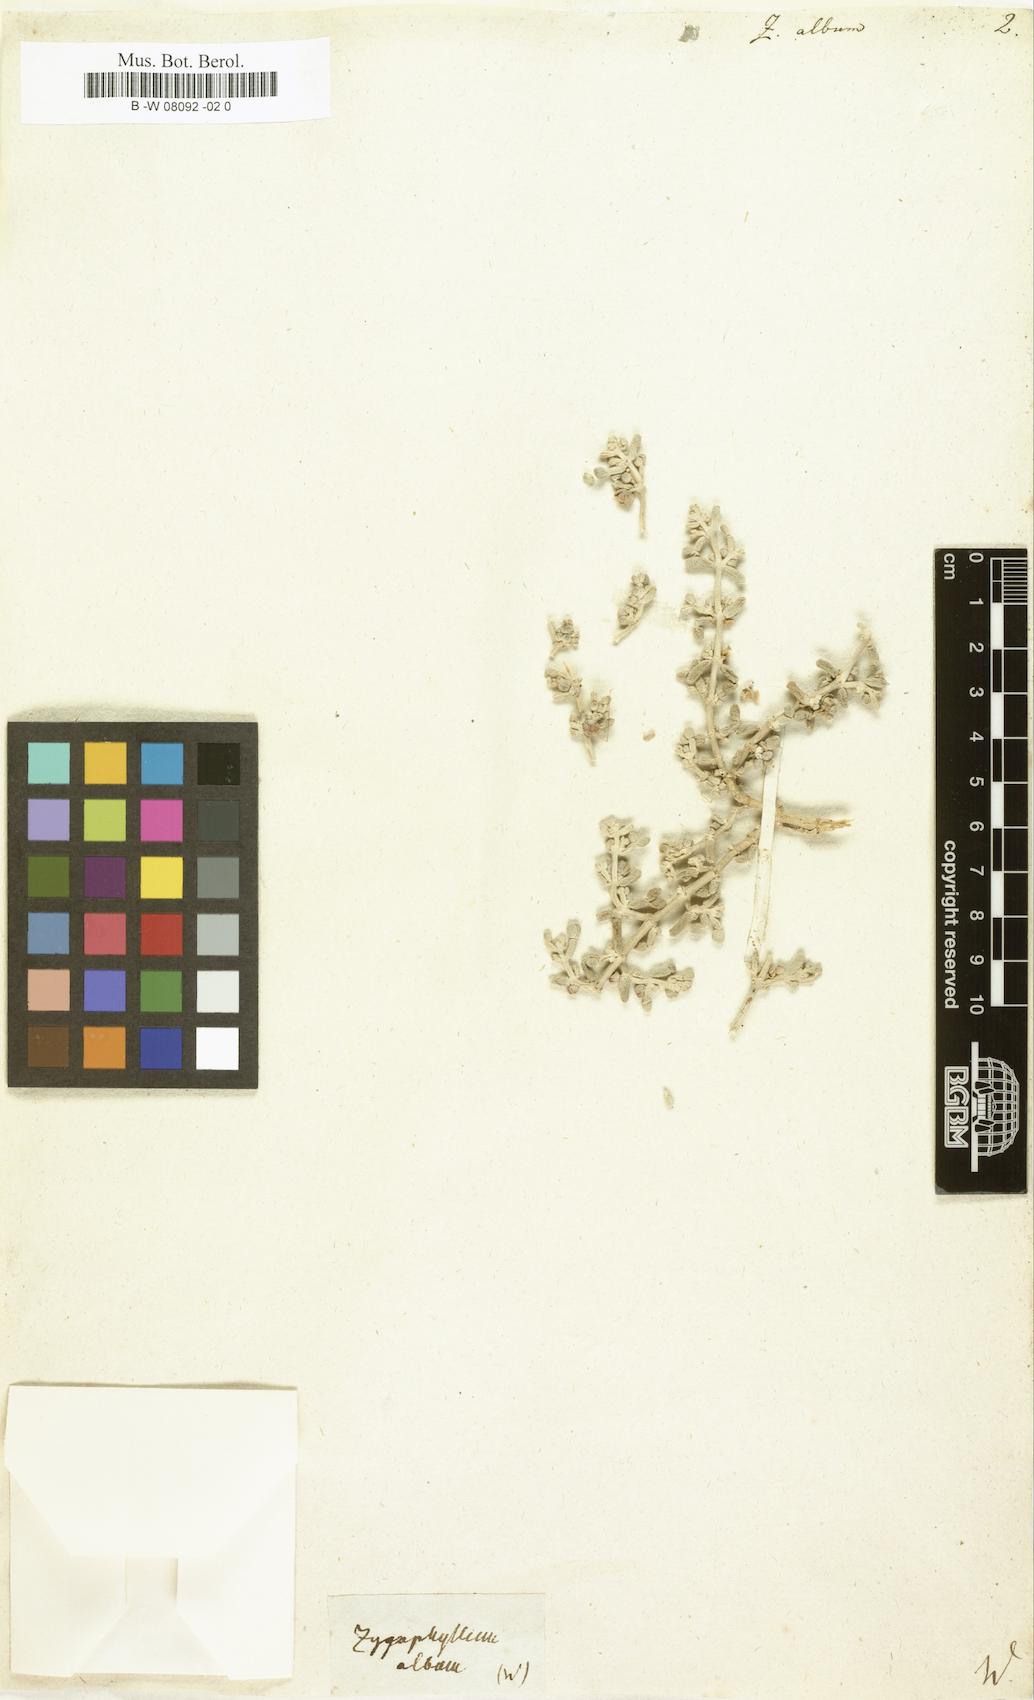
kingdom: Plantae
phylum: Tracheophyta
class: Magnoliopsida
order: Zygophyllales
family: Zygophyllaceae
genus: Tetraena
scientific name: Tetraena alba
